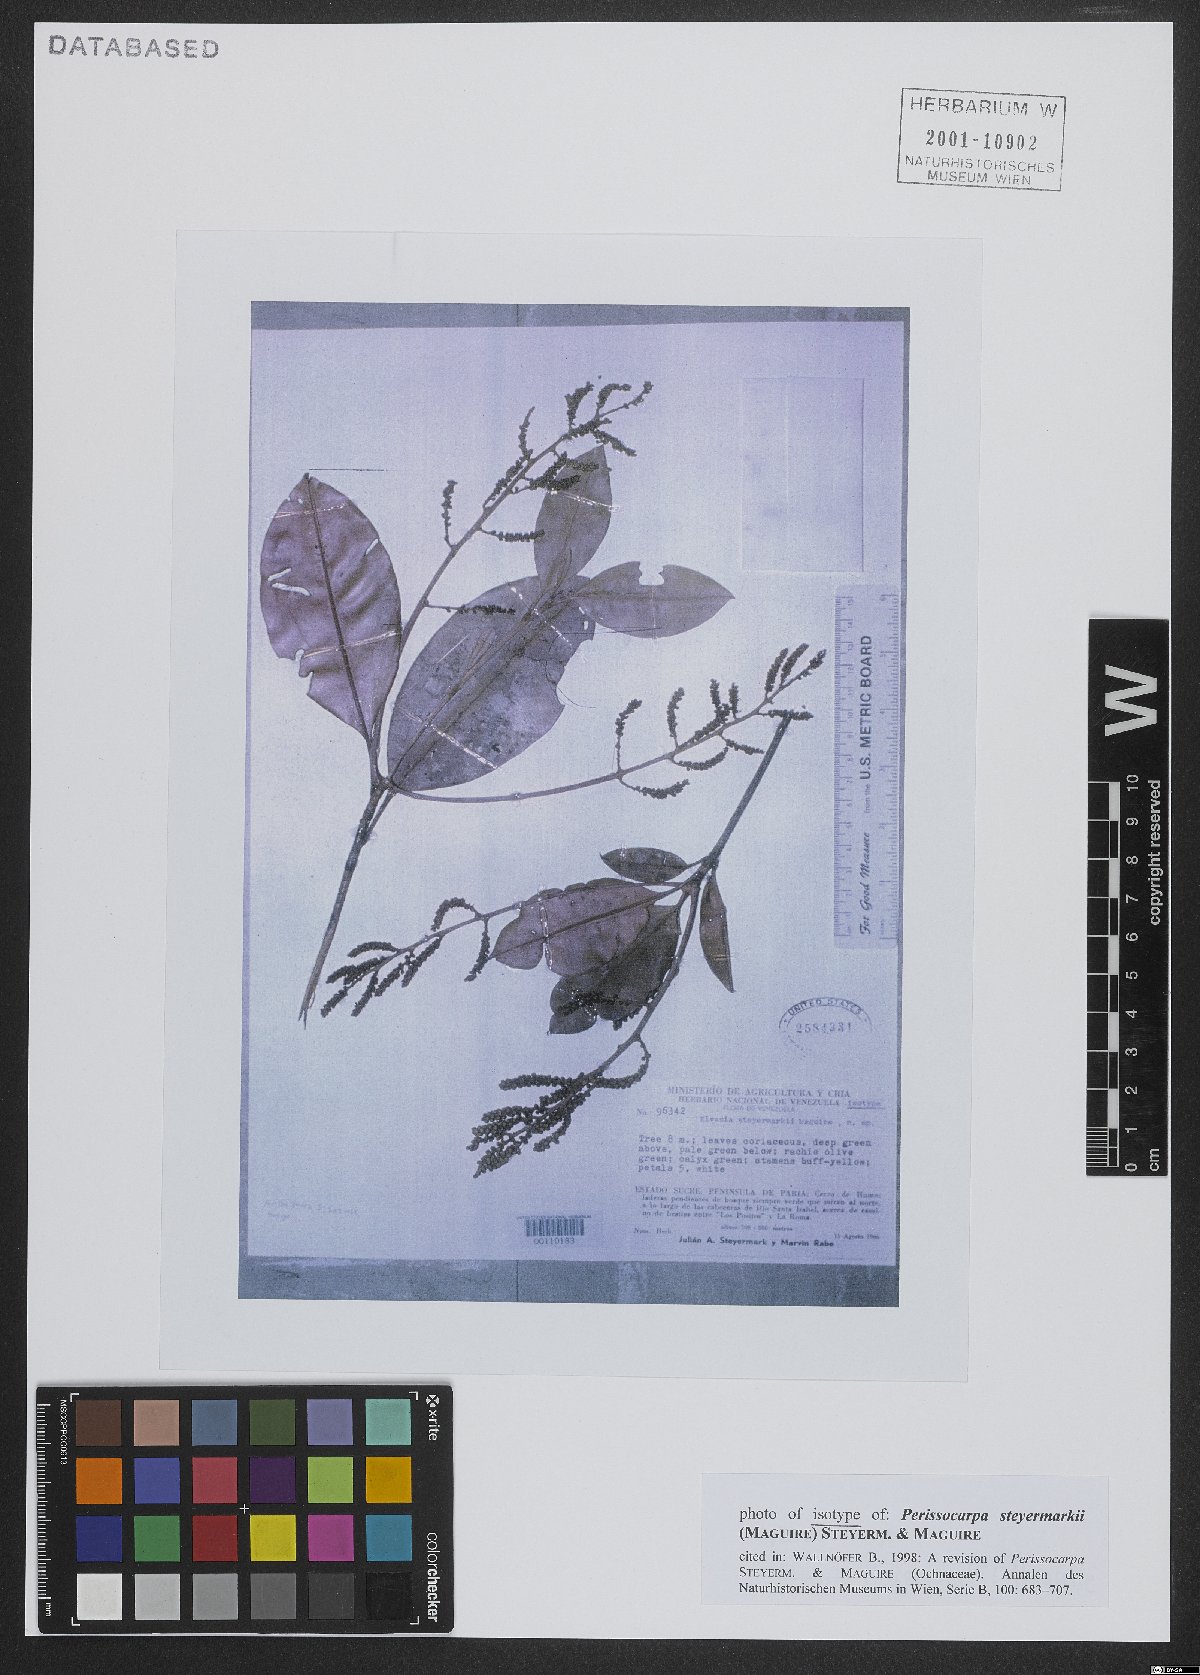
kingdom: Plantae
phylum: Tracheophyta
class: Magnoliopsida
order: Malpighiales
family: Ochnaceae
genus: Perissocarpa
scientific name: Perissocarpa steyermarkii
